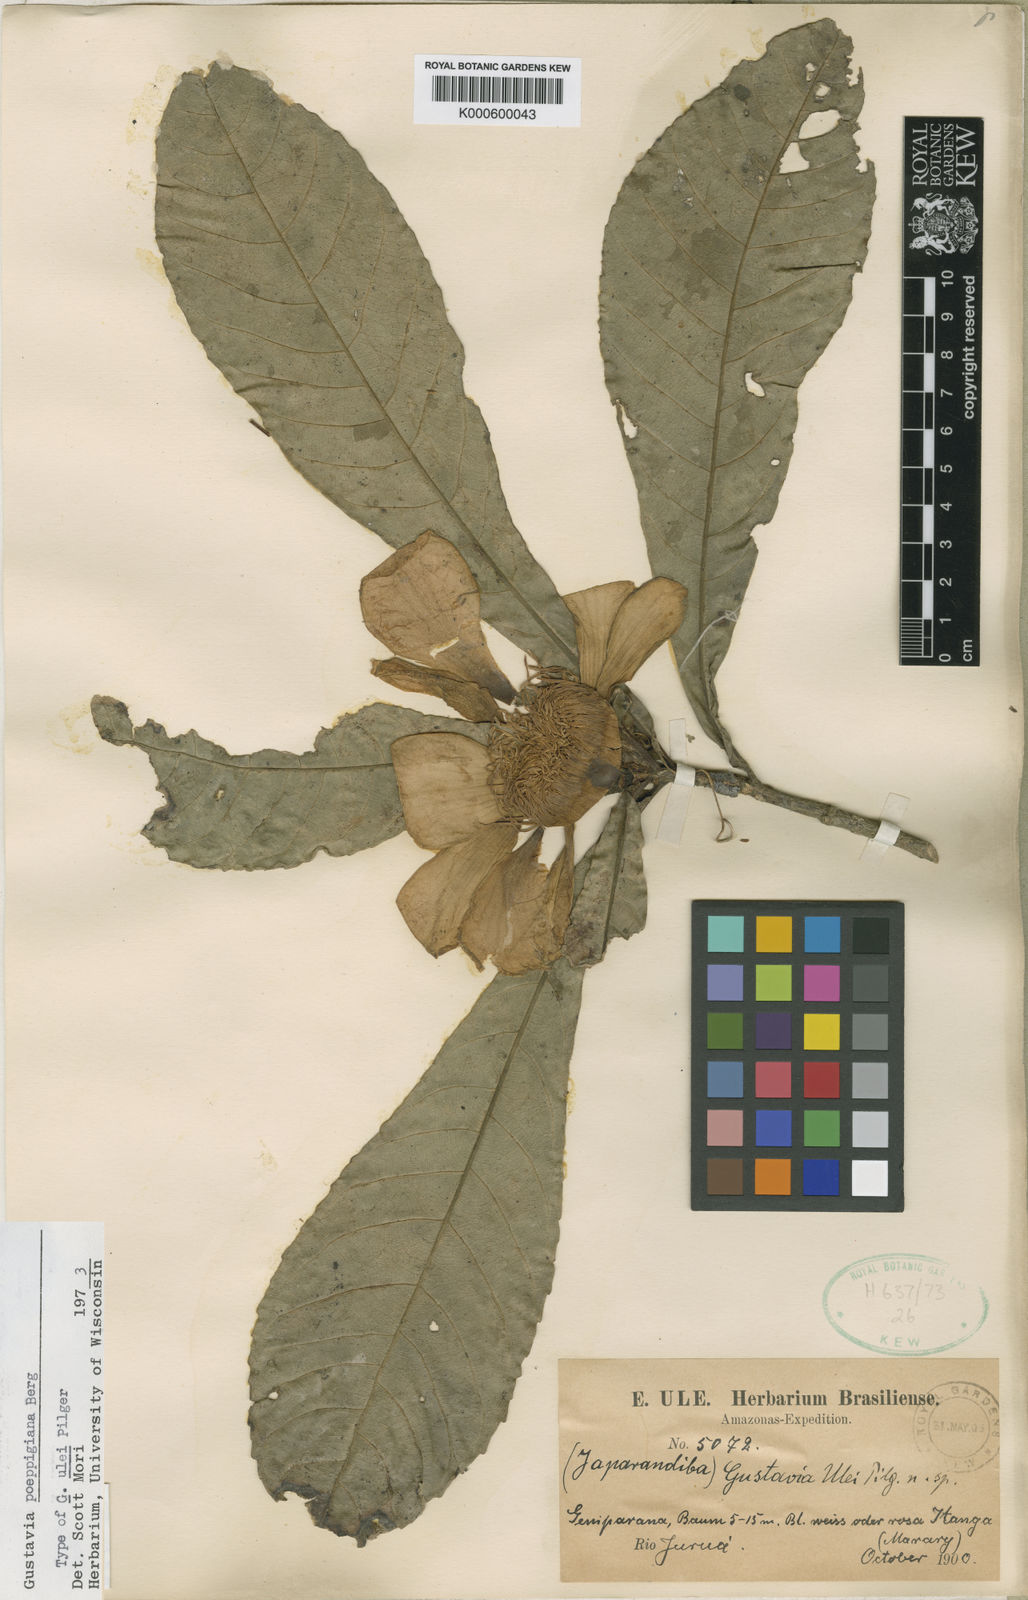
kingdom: Plantae
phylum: Tracheophyta
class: Magnoliopsida
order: Ericales
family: Lecythidaceae
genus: Gustavia
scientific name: Gustavia poeppigiana
